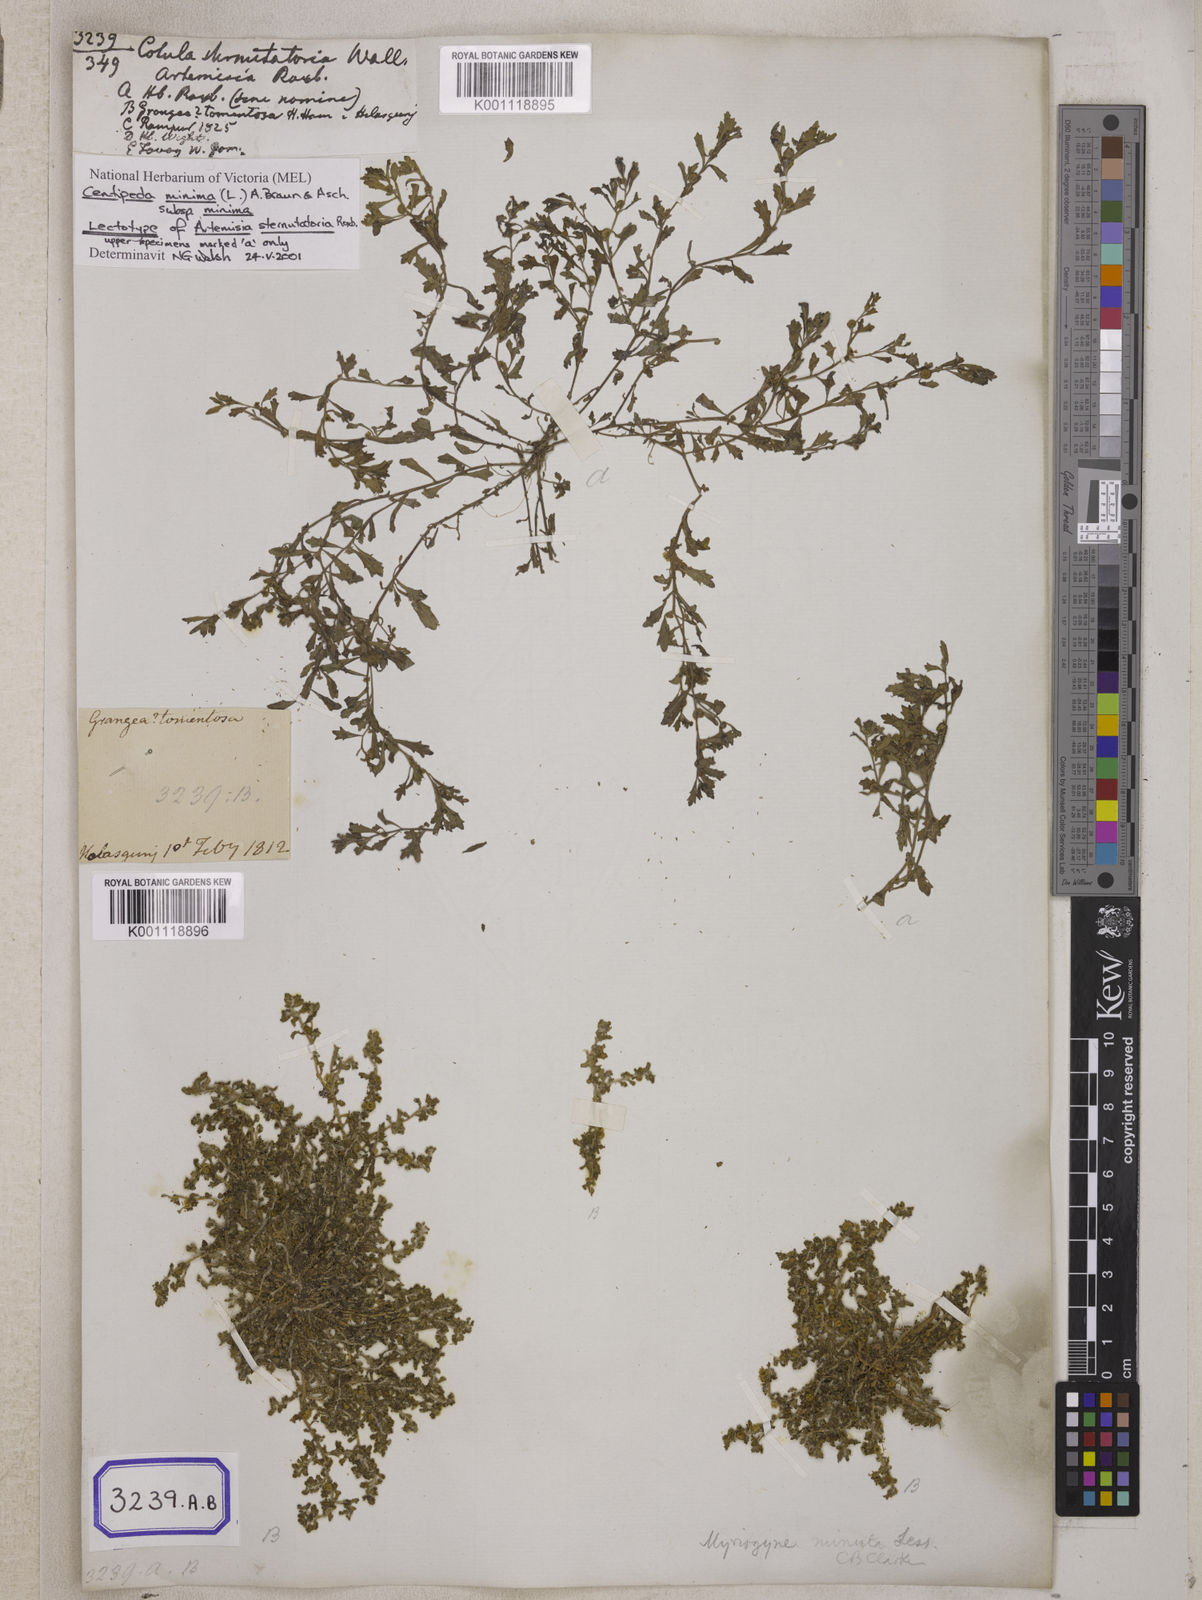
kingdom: Plantae
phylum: Tracheophyta
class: Magnoliopsida
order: Asterales
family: Asteraceae
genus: Cotula
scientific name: Cotula
